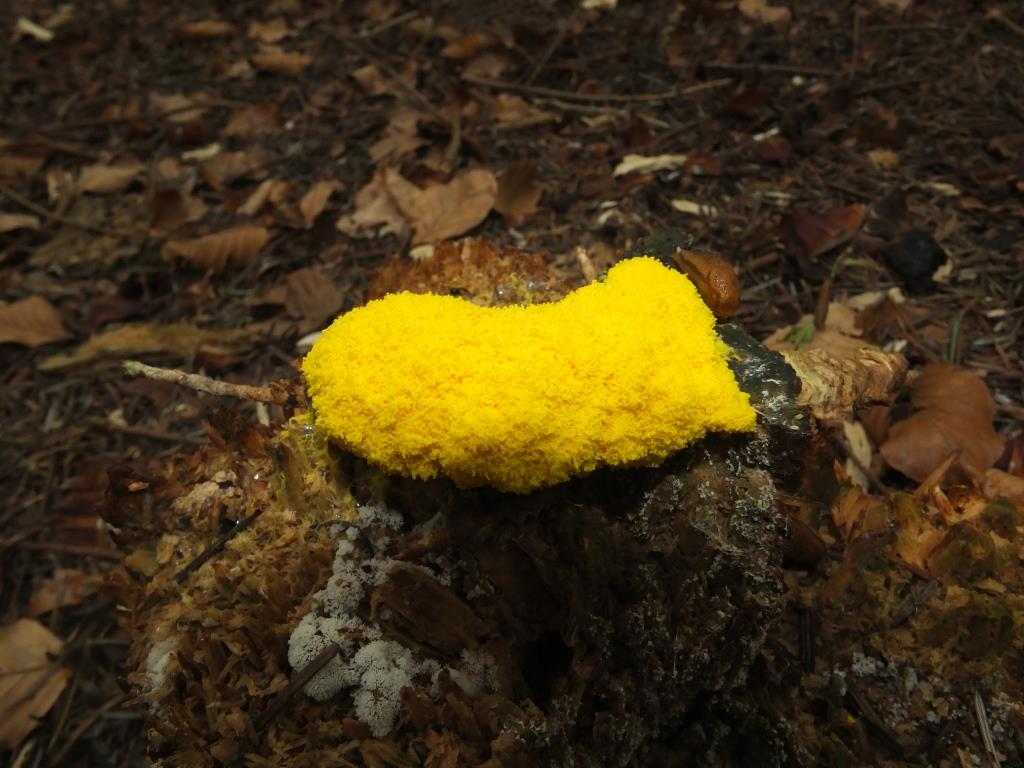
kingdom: Protozoa
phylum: Mycetozoa
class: Myxomycetes
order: Physarales
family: Physaraceae
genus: Fuligo
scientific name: Fuligo septica
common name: gul troldsmør
